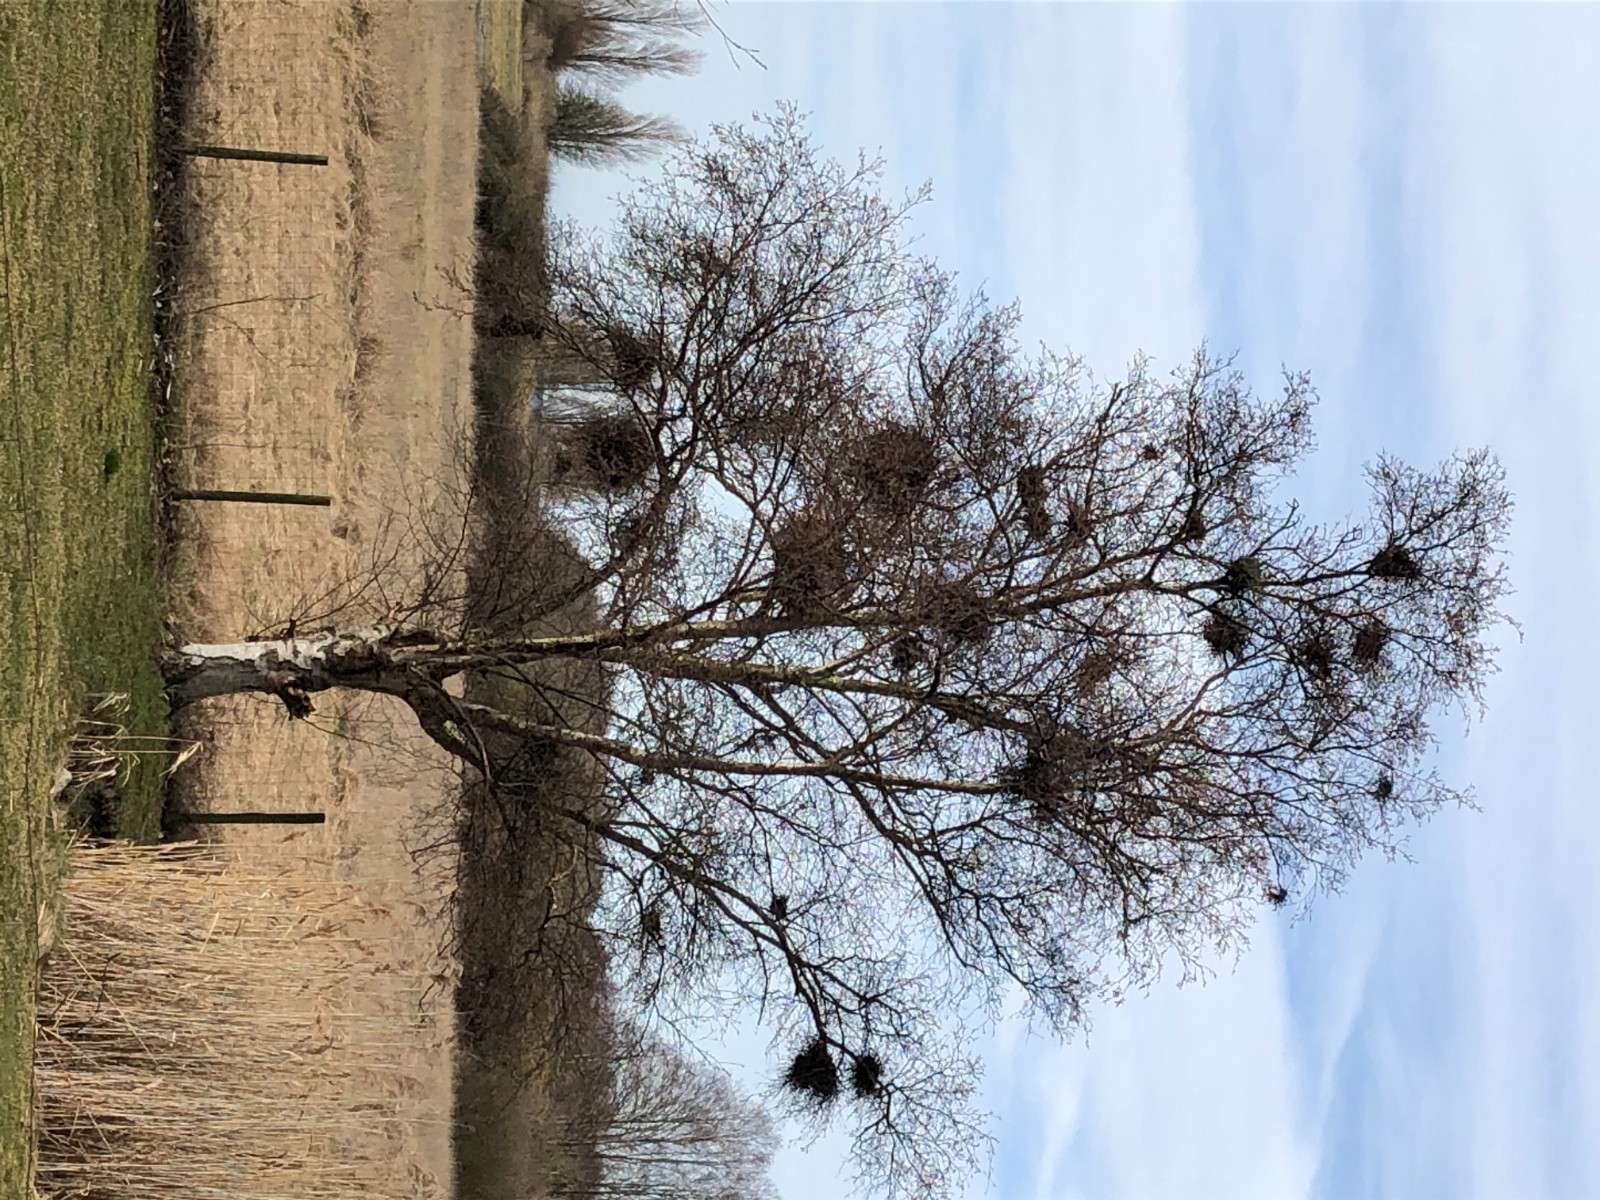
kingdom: Fungi
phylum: Ascomycota
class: Taphrinomycetes
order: Taphrinales
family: Taphrinaceae
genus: Taphrina
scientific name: Taphrina betulina
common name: hekse-sækdug
